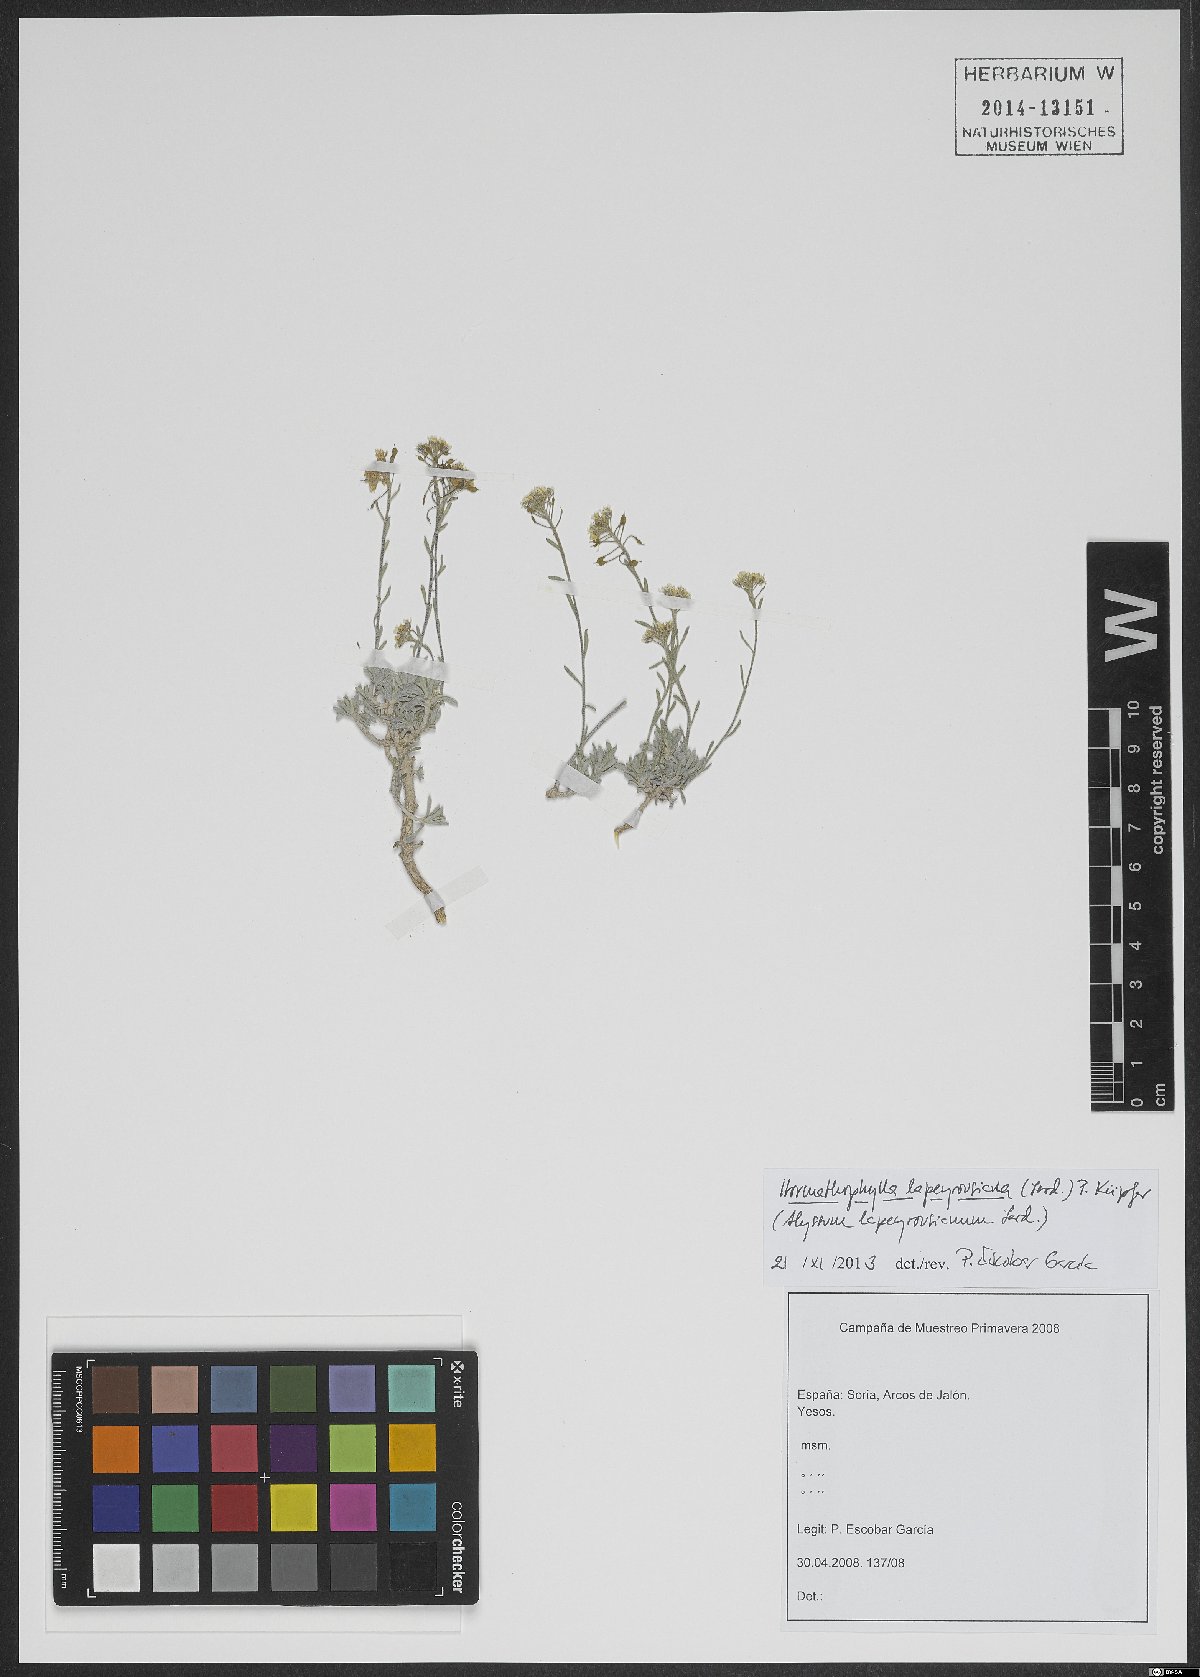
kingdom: Plantae
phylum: Tracheophyta
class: Magnoliopsida
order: Brassicales
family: Brassicaceae
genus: Hormathophylla
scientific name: Hormathophylla lapeyrousiana
